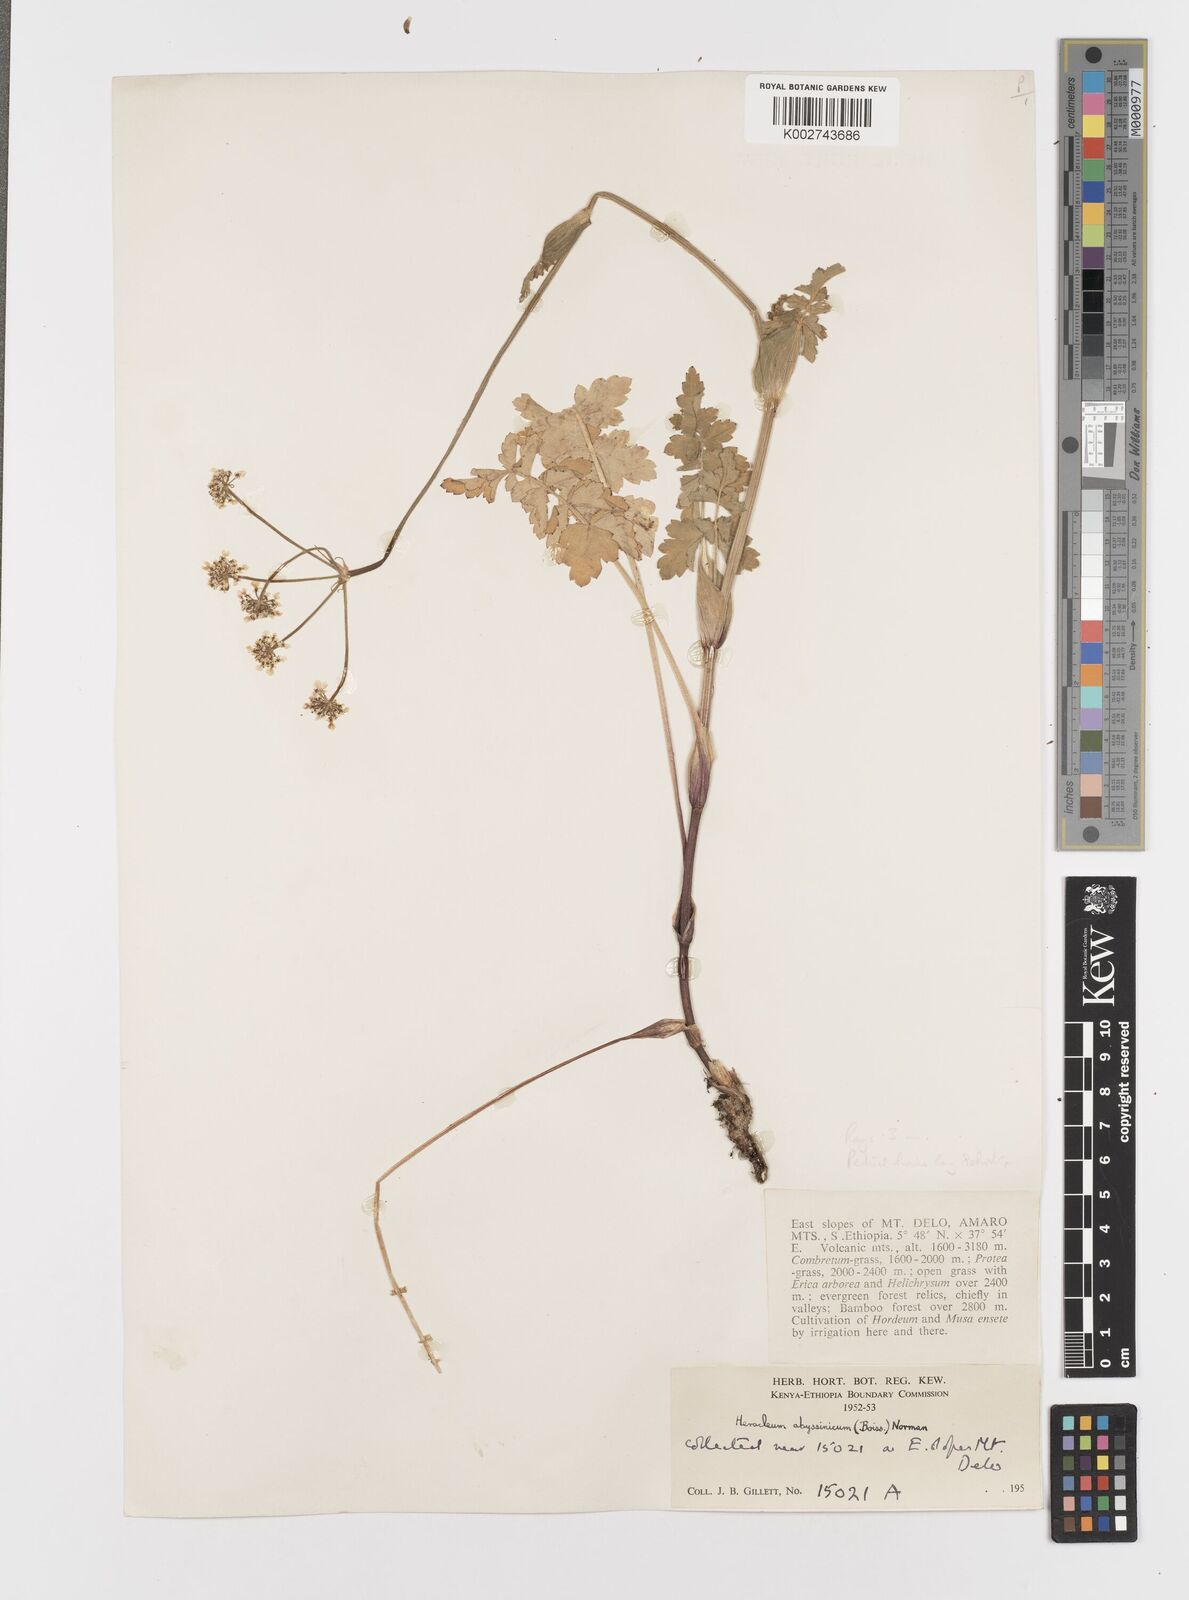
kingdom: Plantae
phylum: Tracheophyta
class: Magnoliopsida
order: Apiales
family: Apiaceae
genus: Heracleum
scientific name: Heracleum abyssinicum
